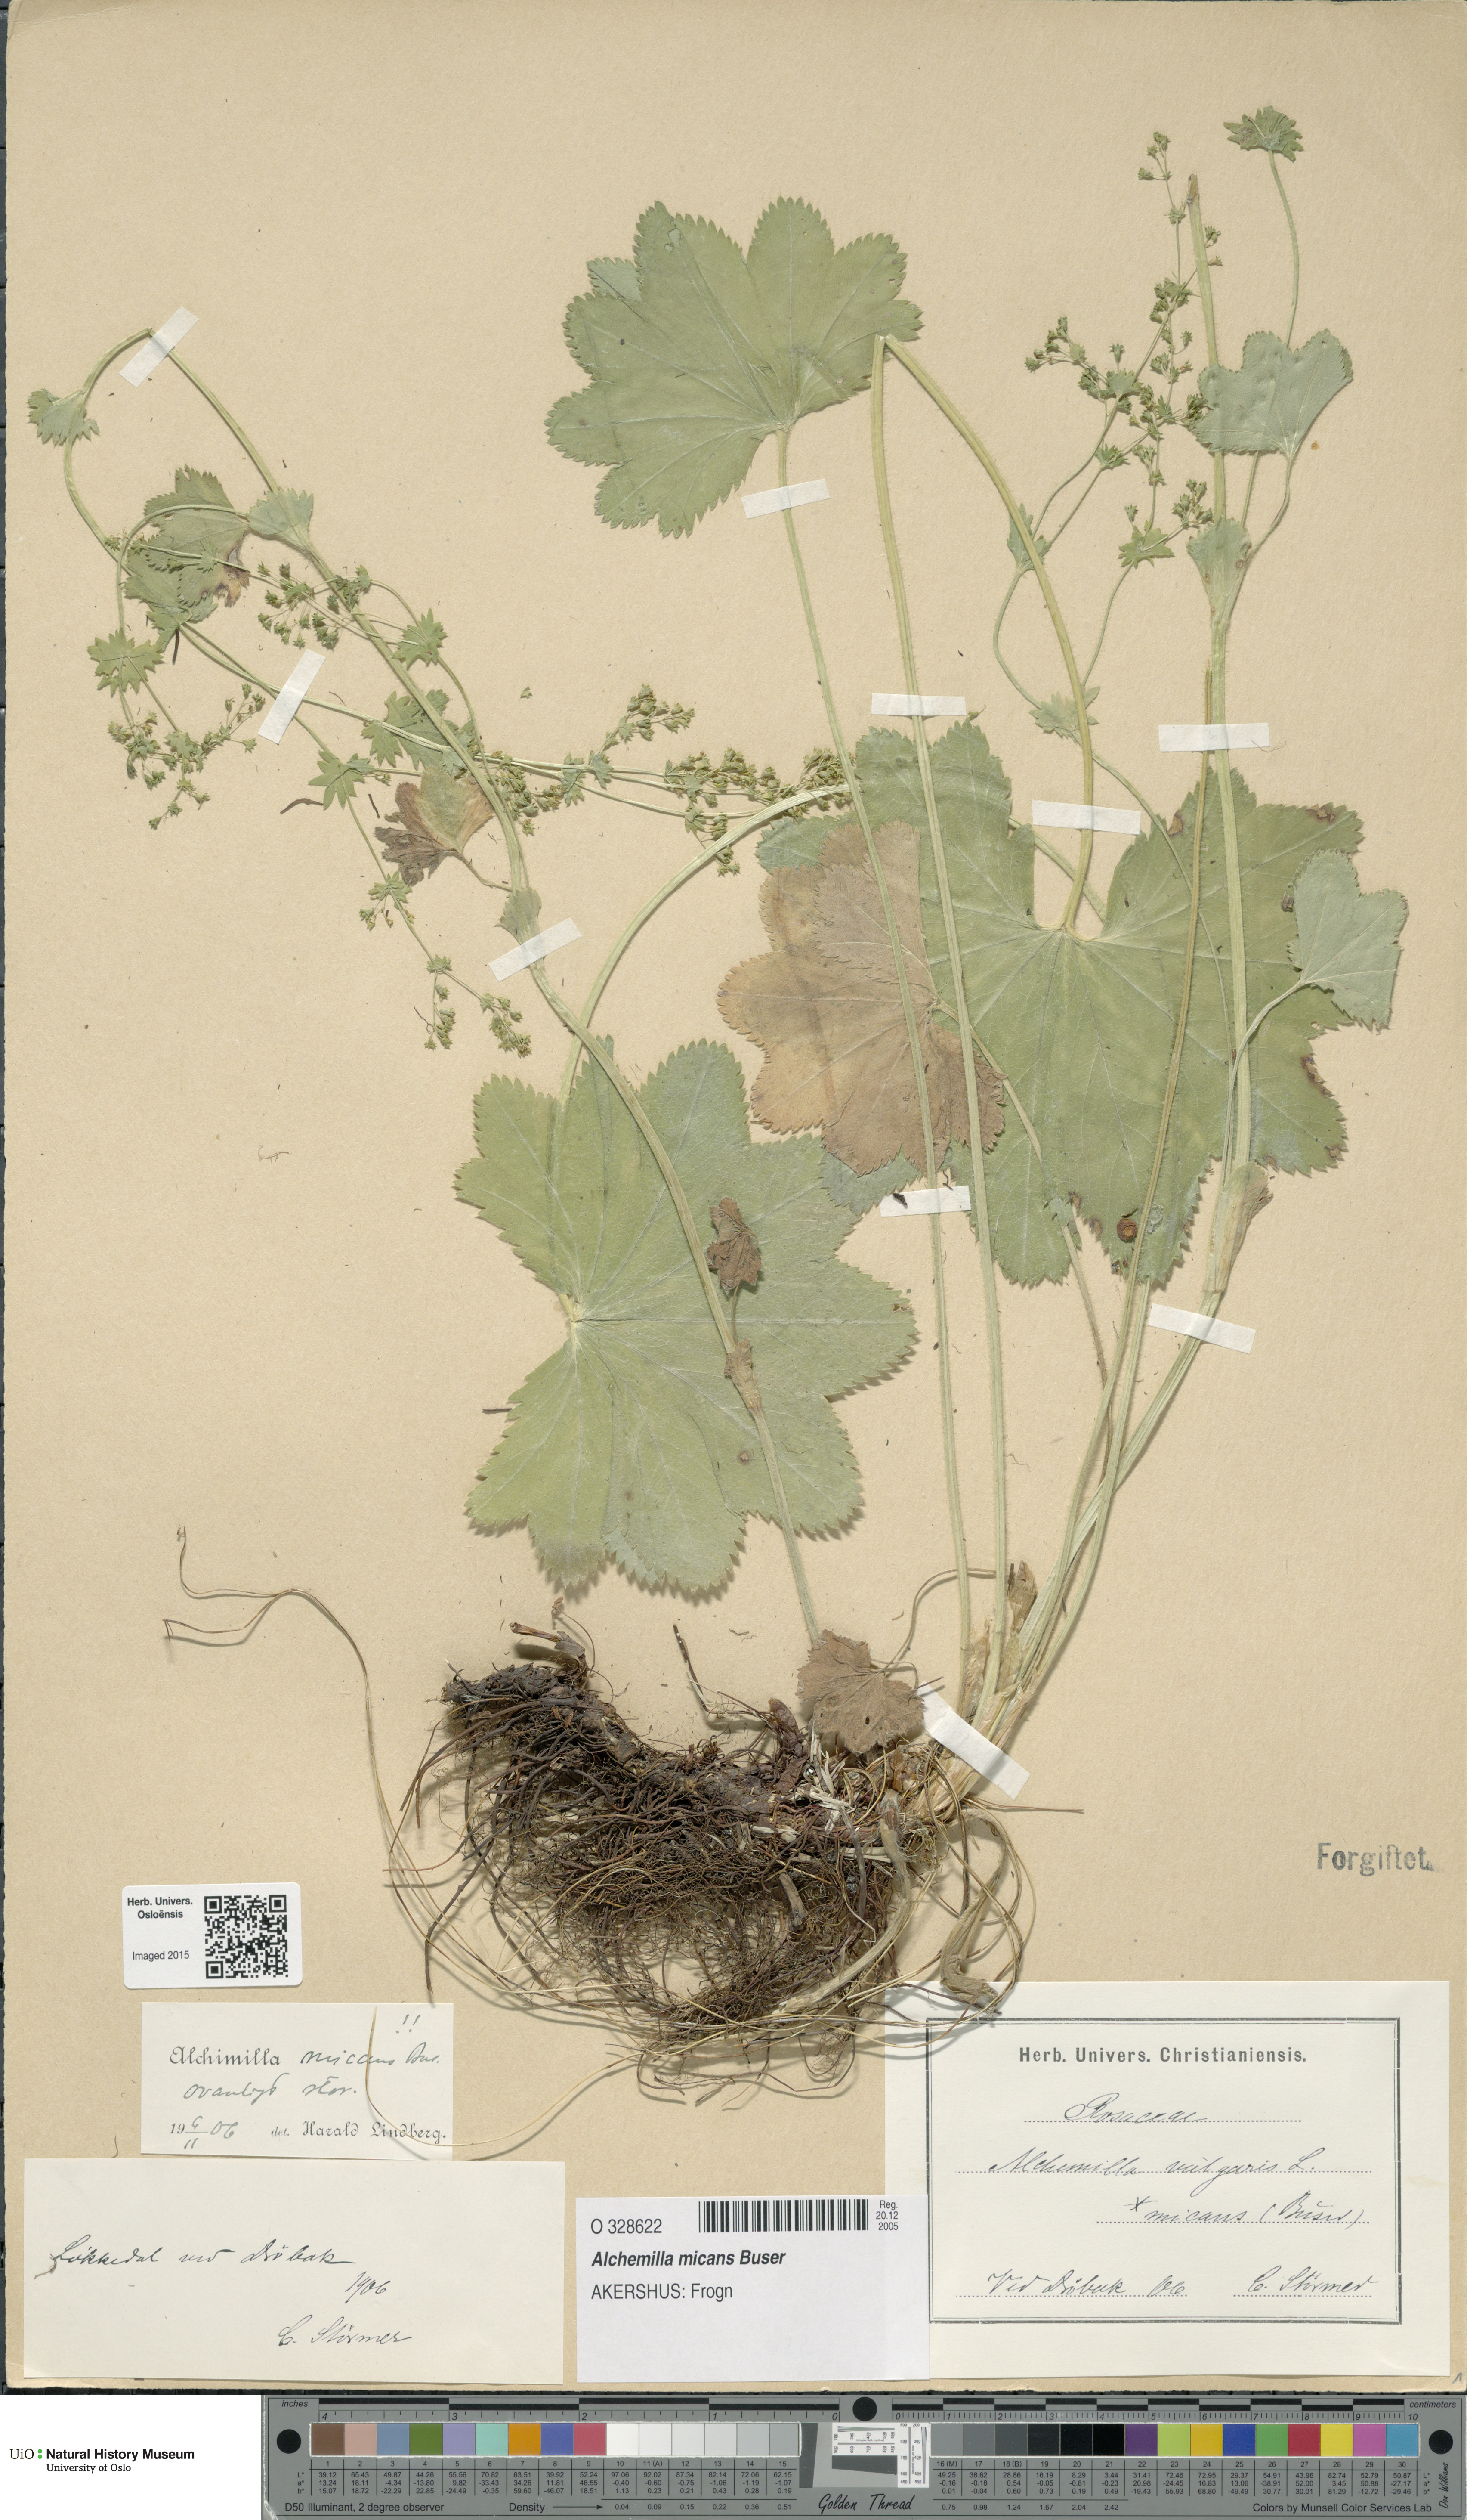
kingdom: Plantae
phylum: Tracheophyta
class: Magnoliopsida
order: Rosales
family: Rosaceae
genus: Alchemilla
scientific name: Alchemilla micans
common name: Gleaming lady's mantle
